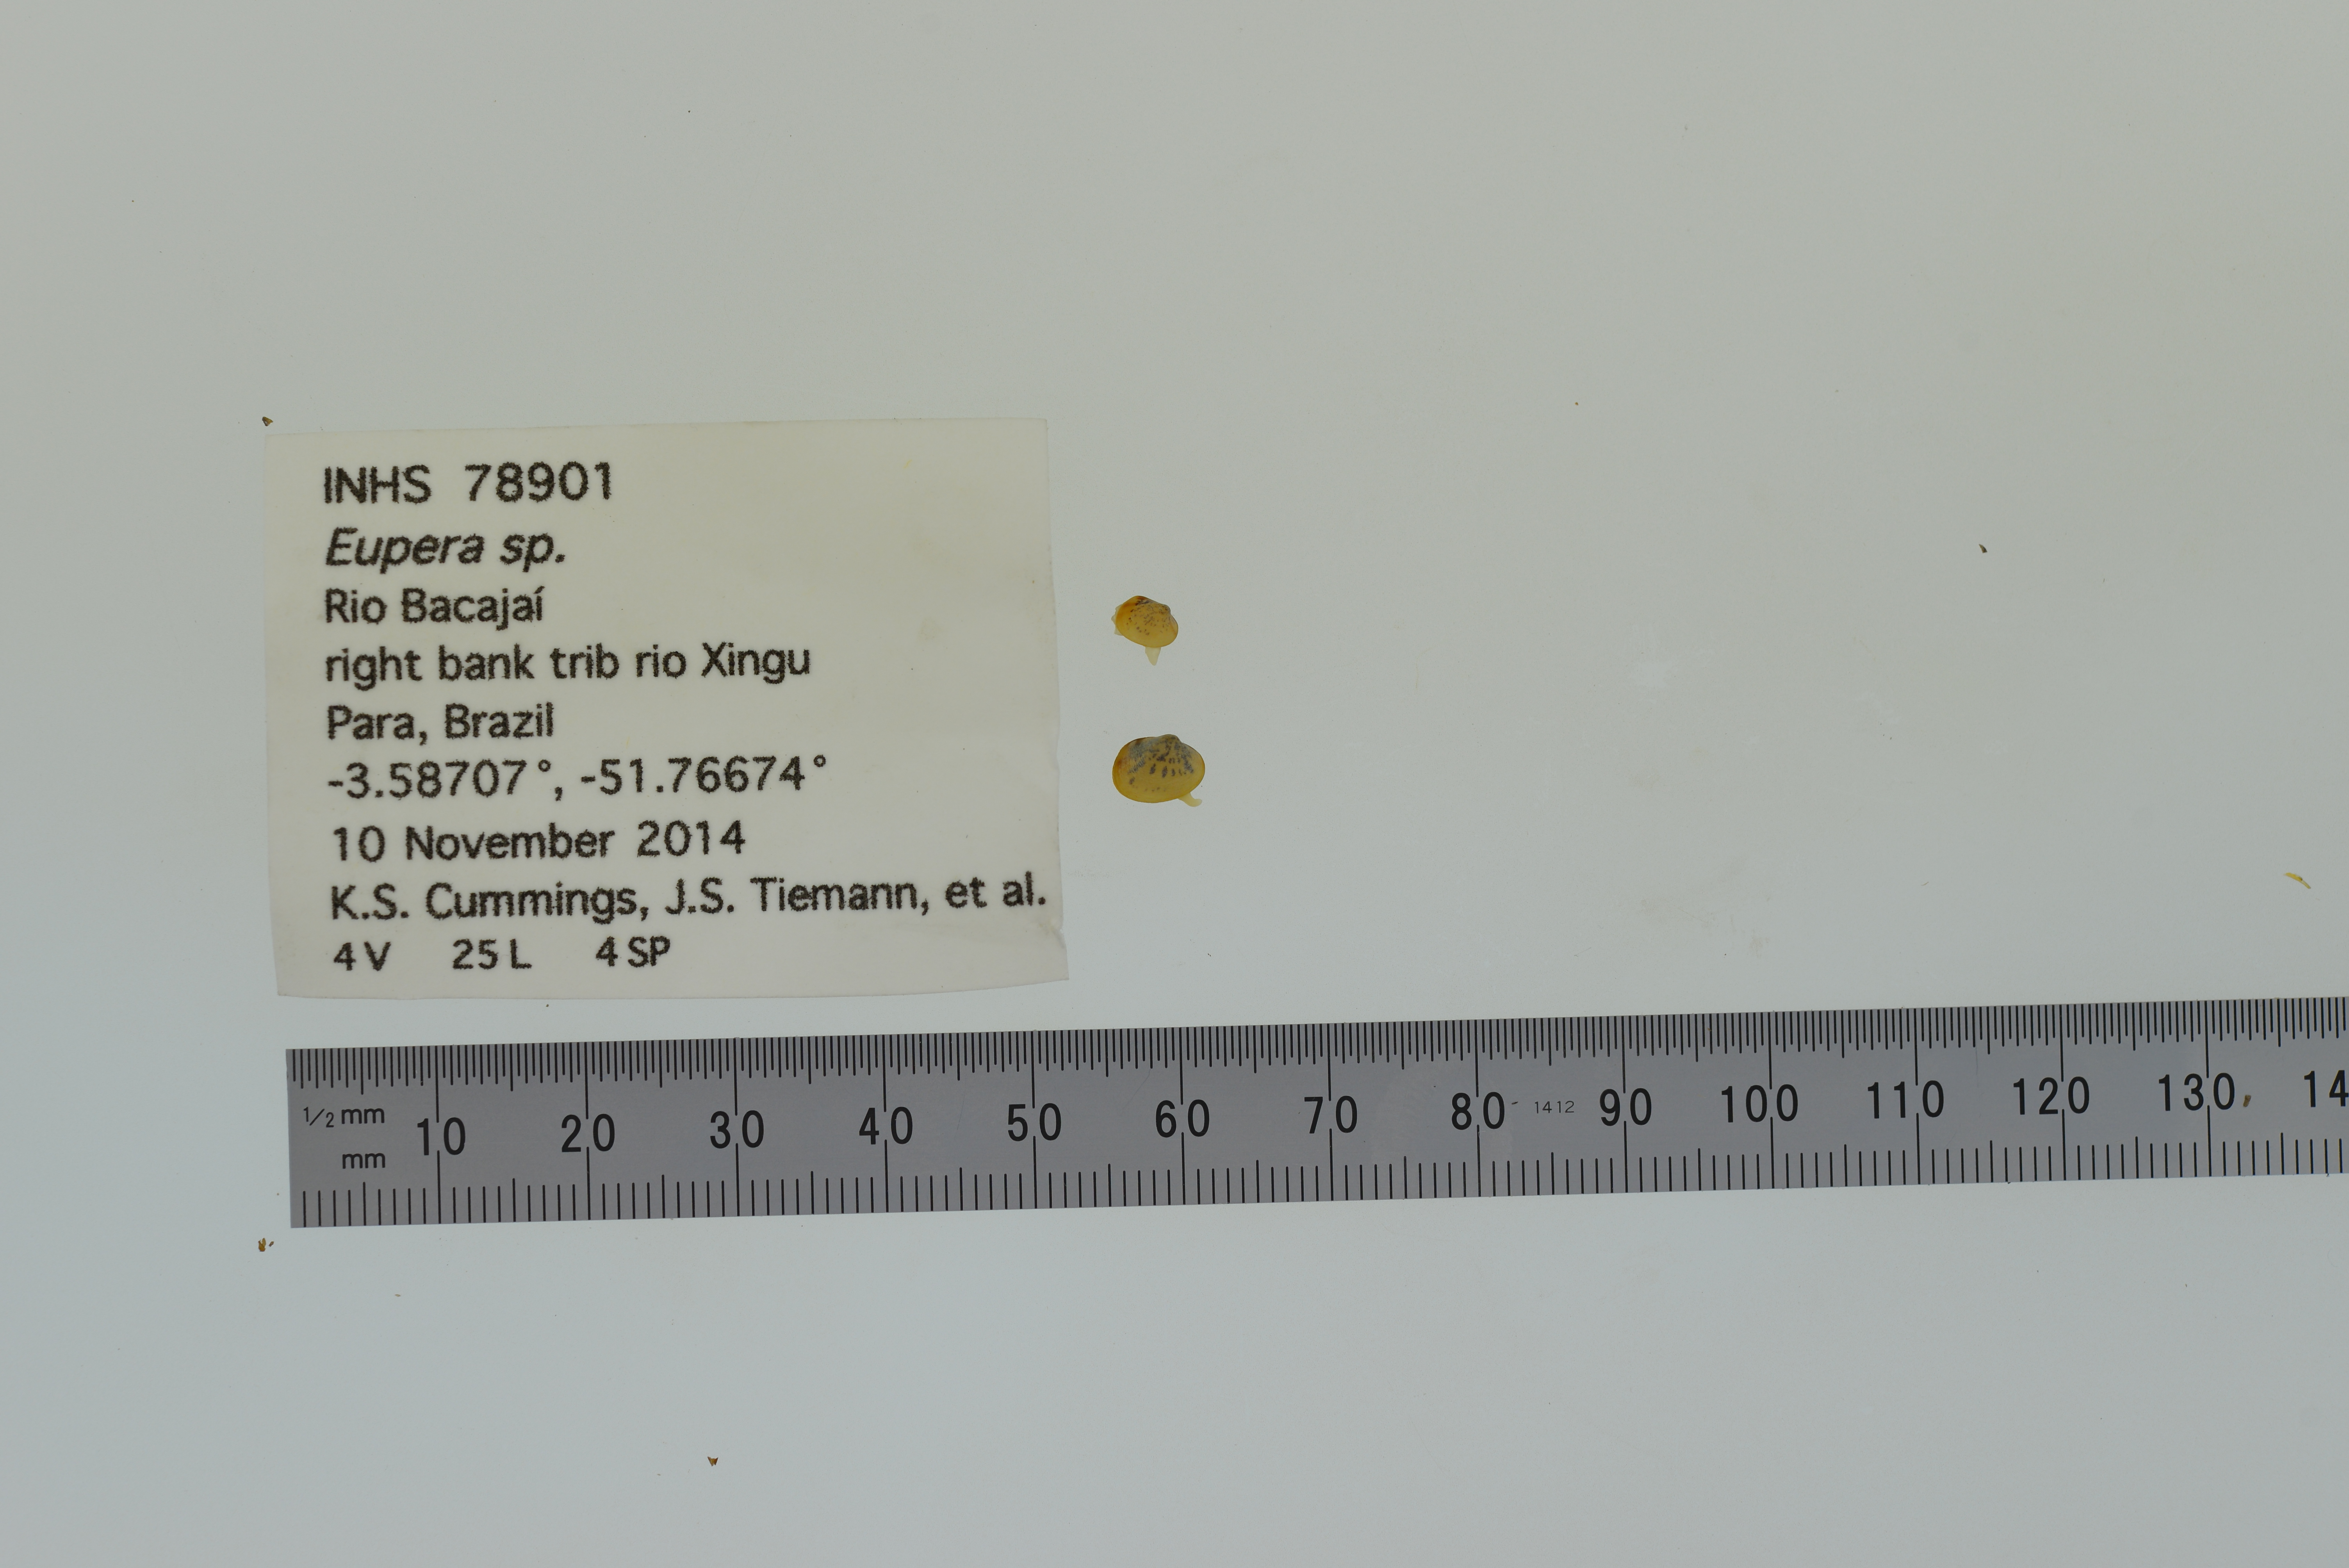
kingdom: Animalia
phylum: Mollusca
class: Bivalvia
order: Sphaeriida
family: Sphaeriidae
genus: Eupera
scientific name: Eupera
